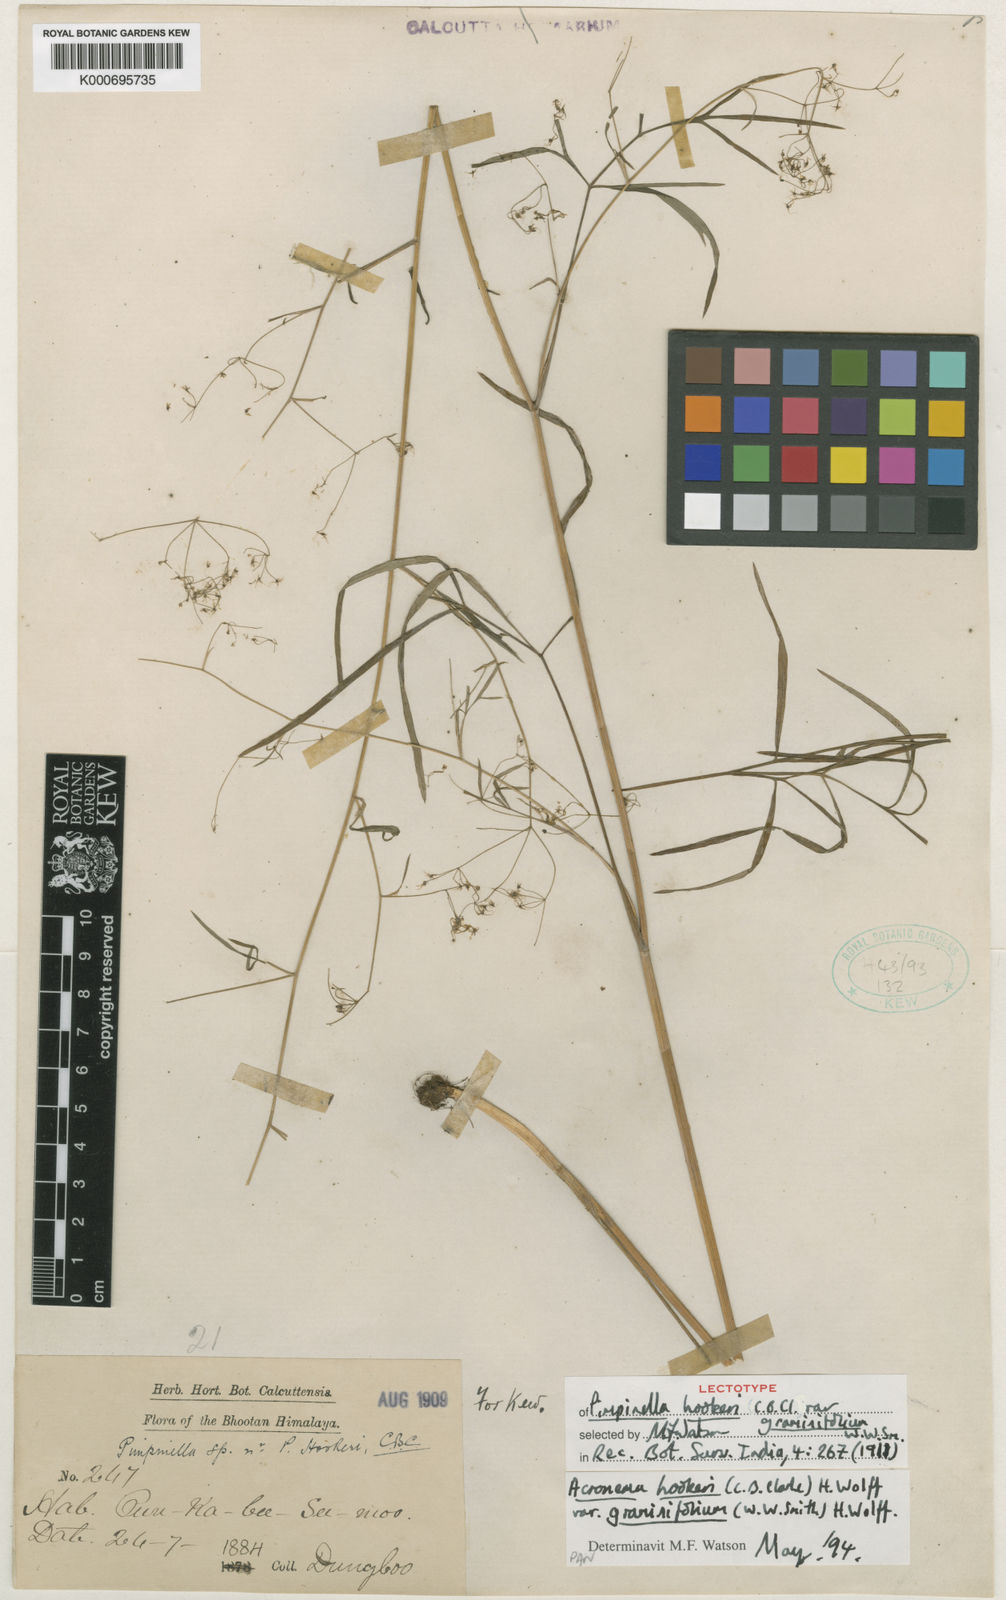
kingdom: Plantae
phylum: Tracheophyta
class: Magnoliopsida
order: Apiales
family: Apiaceae
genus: Acronema
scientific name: Acronema hookeri
